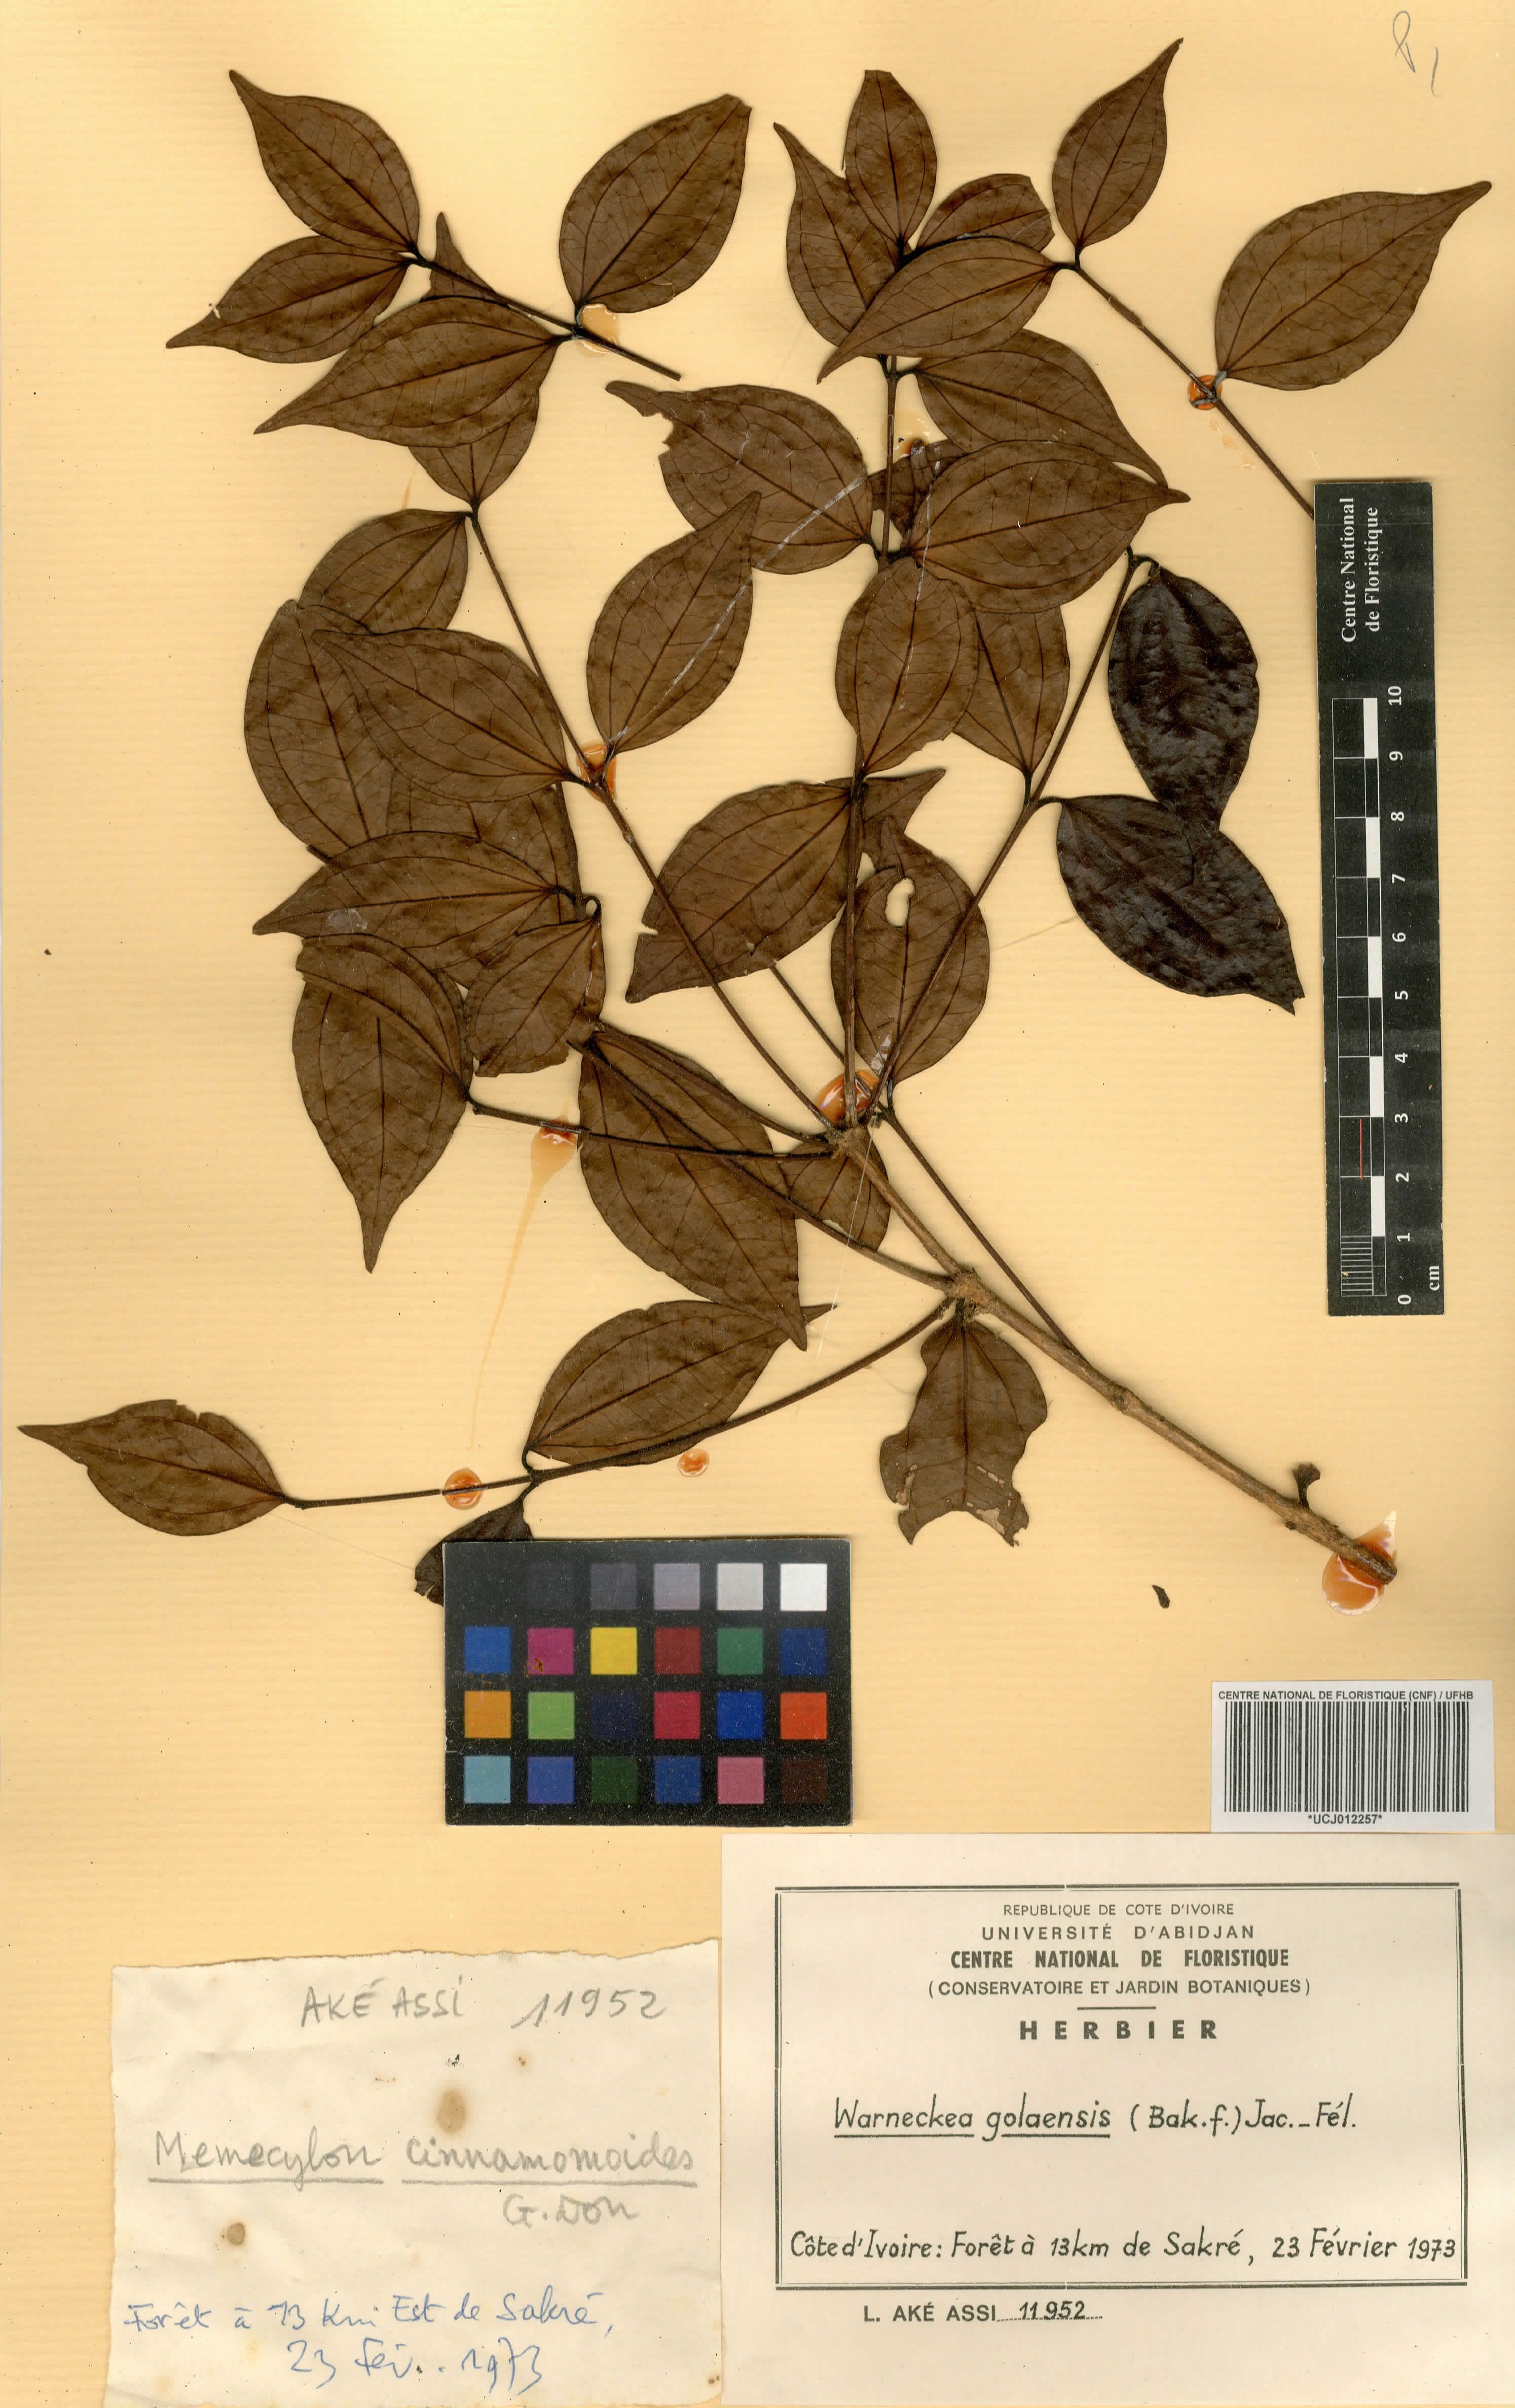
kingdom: Plantae
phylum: Tracheophyta
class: Magnoliopsida
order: Myrtales
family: Melastomataceae
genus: Warneckea
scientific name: Warneckea golaensis
